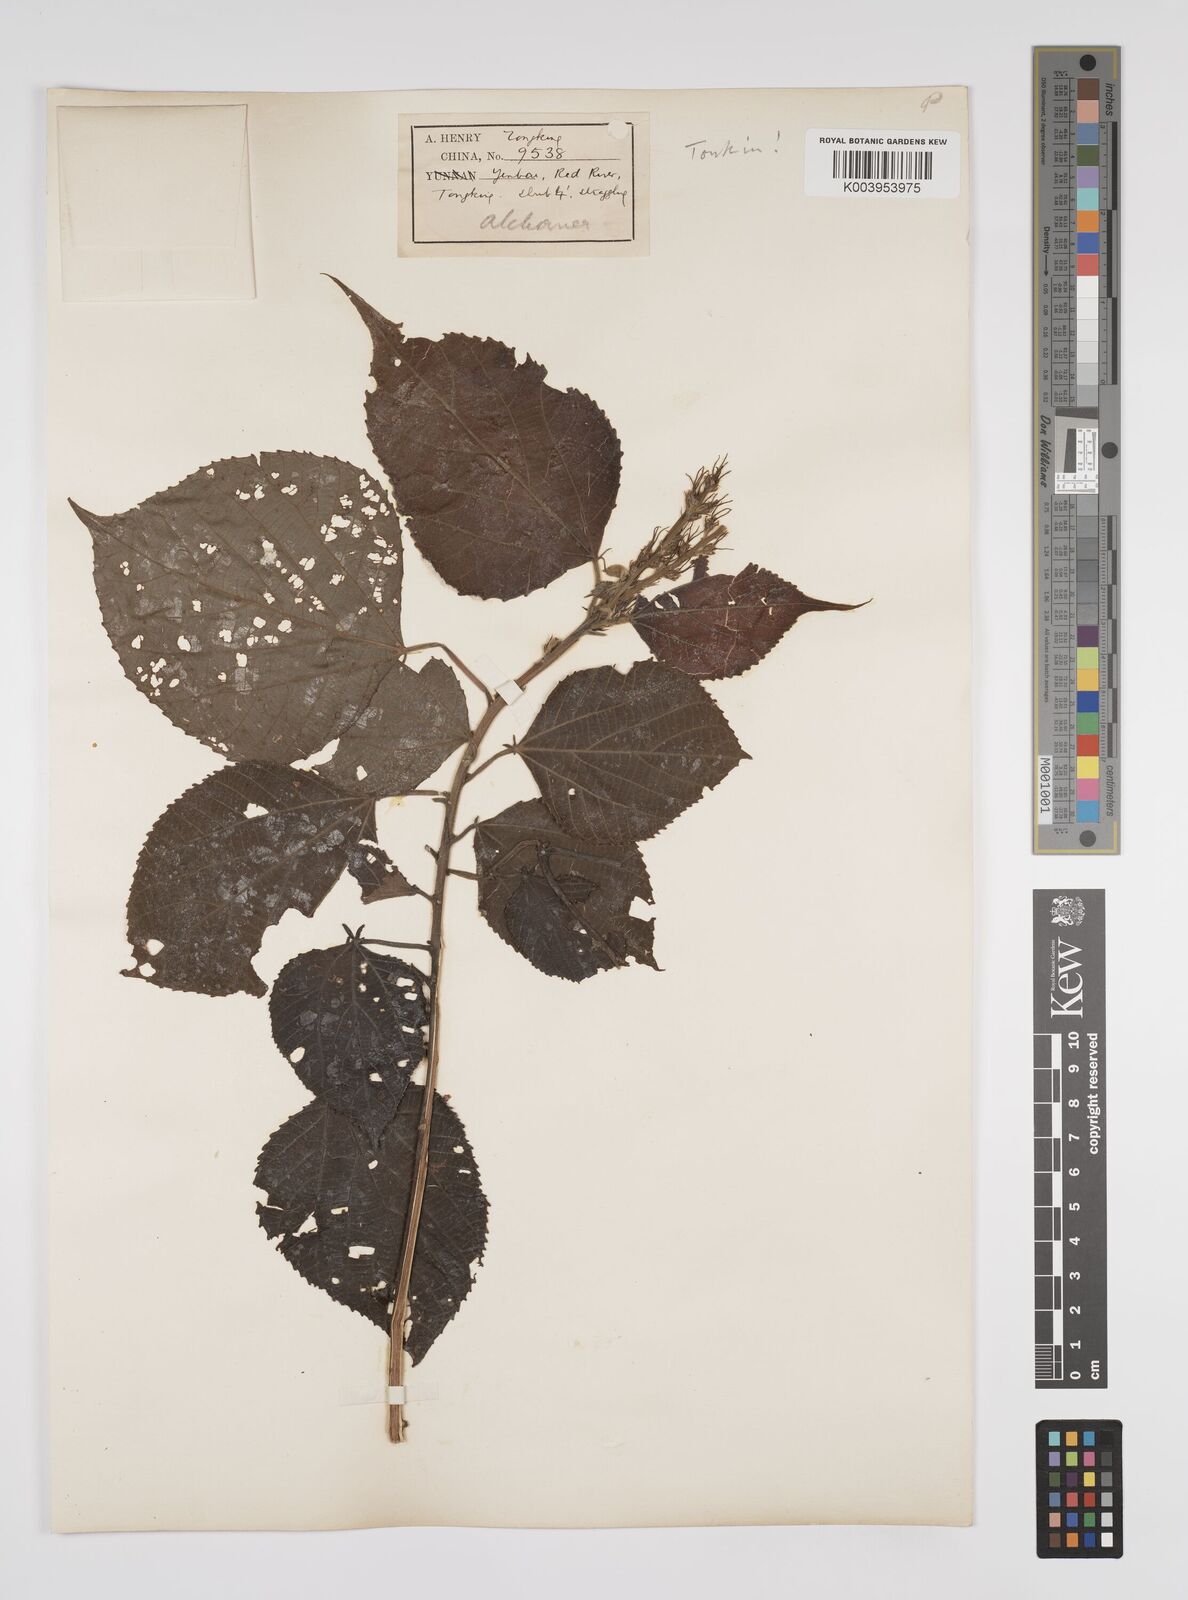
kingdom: Plantae
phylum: Tracheophyta
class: Magnoliopsida
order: Malpighiales
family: Euphorbiaceae
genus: Alchornea
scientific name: Alchornea tiliifolia
